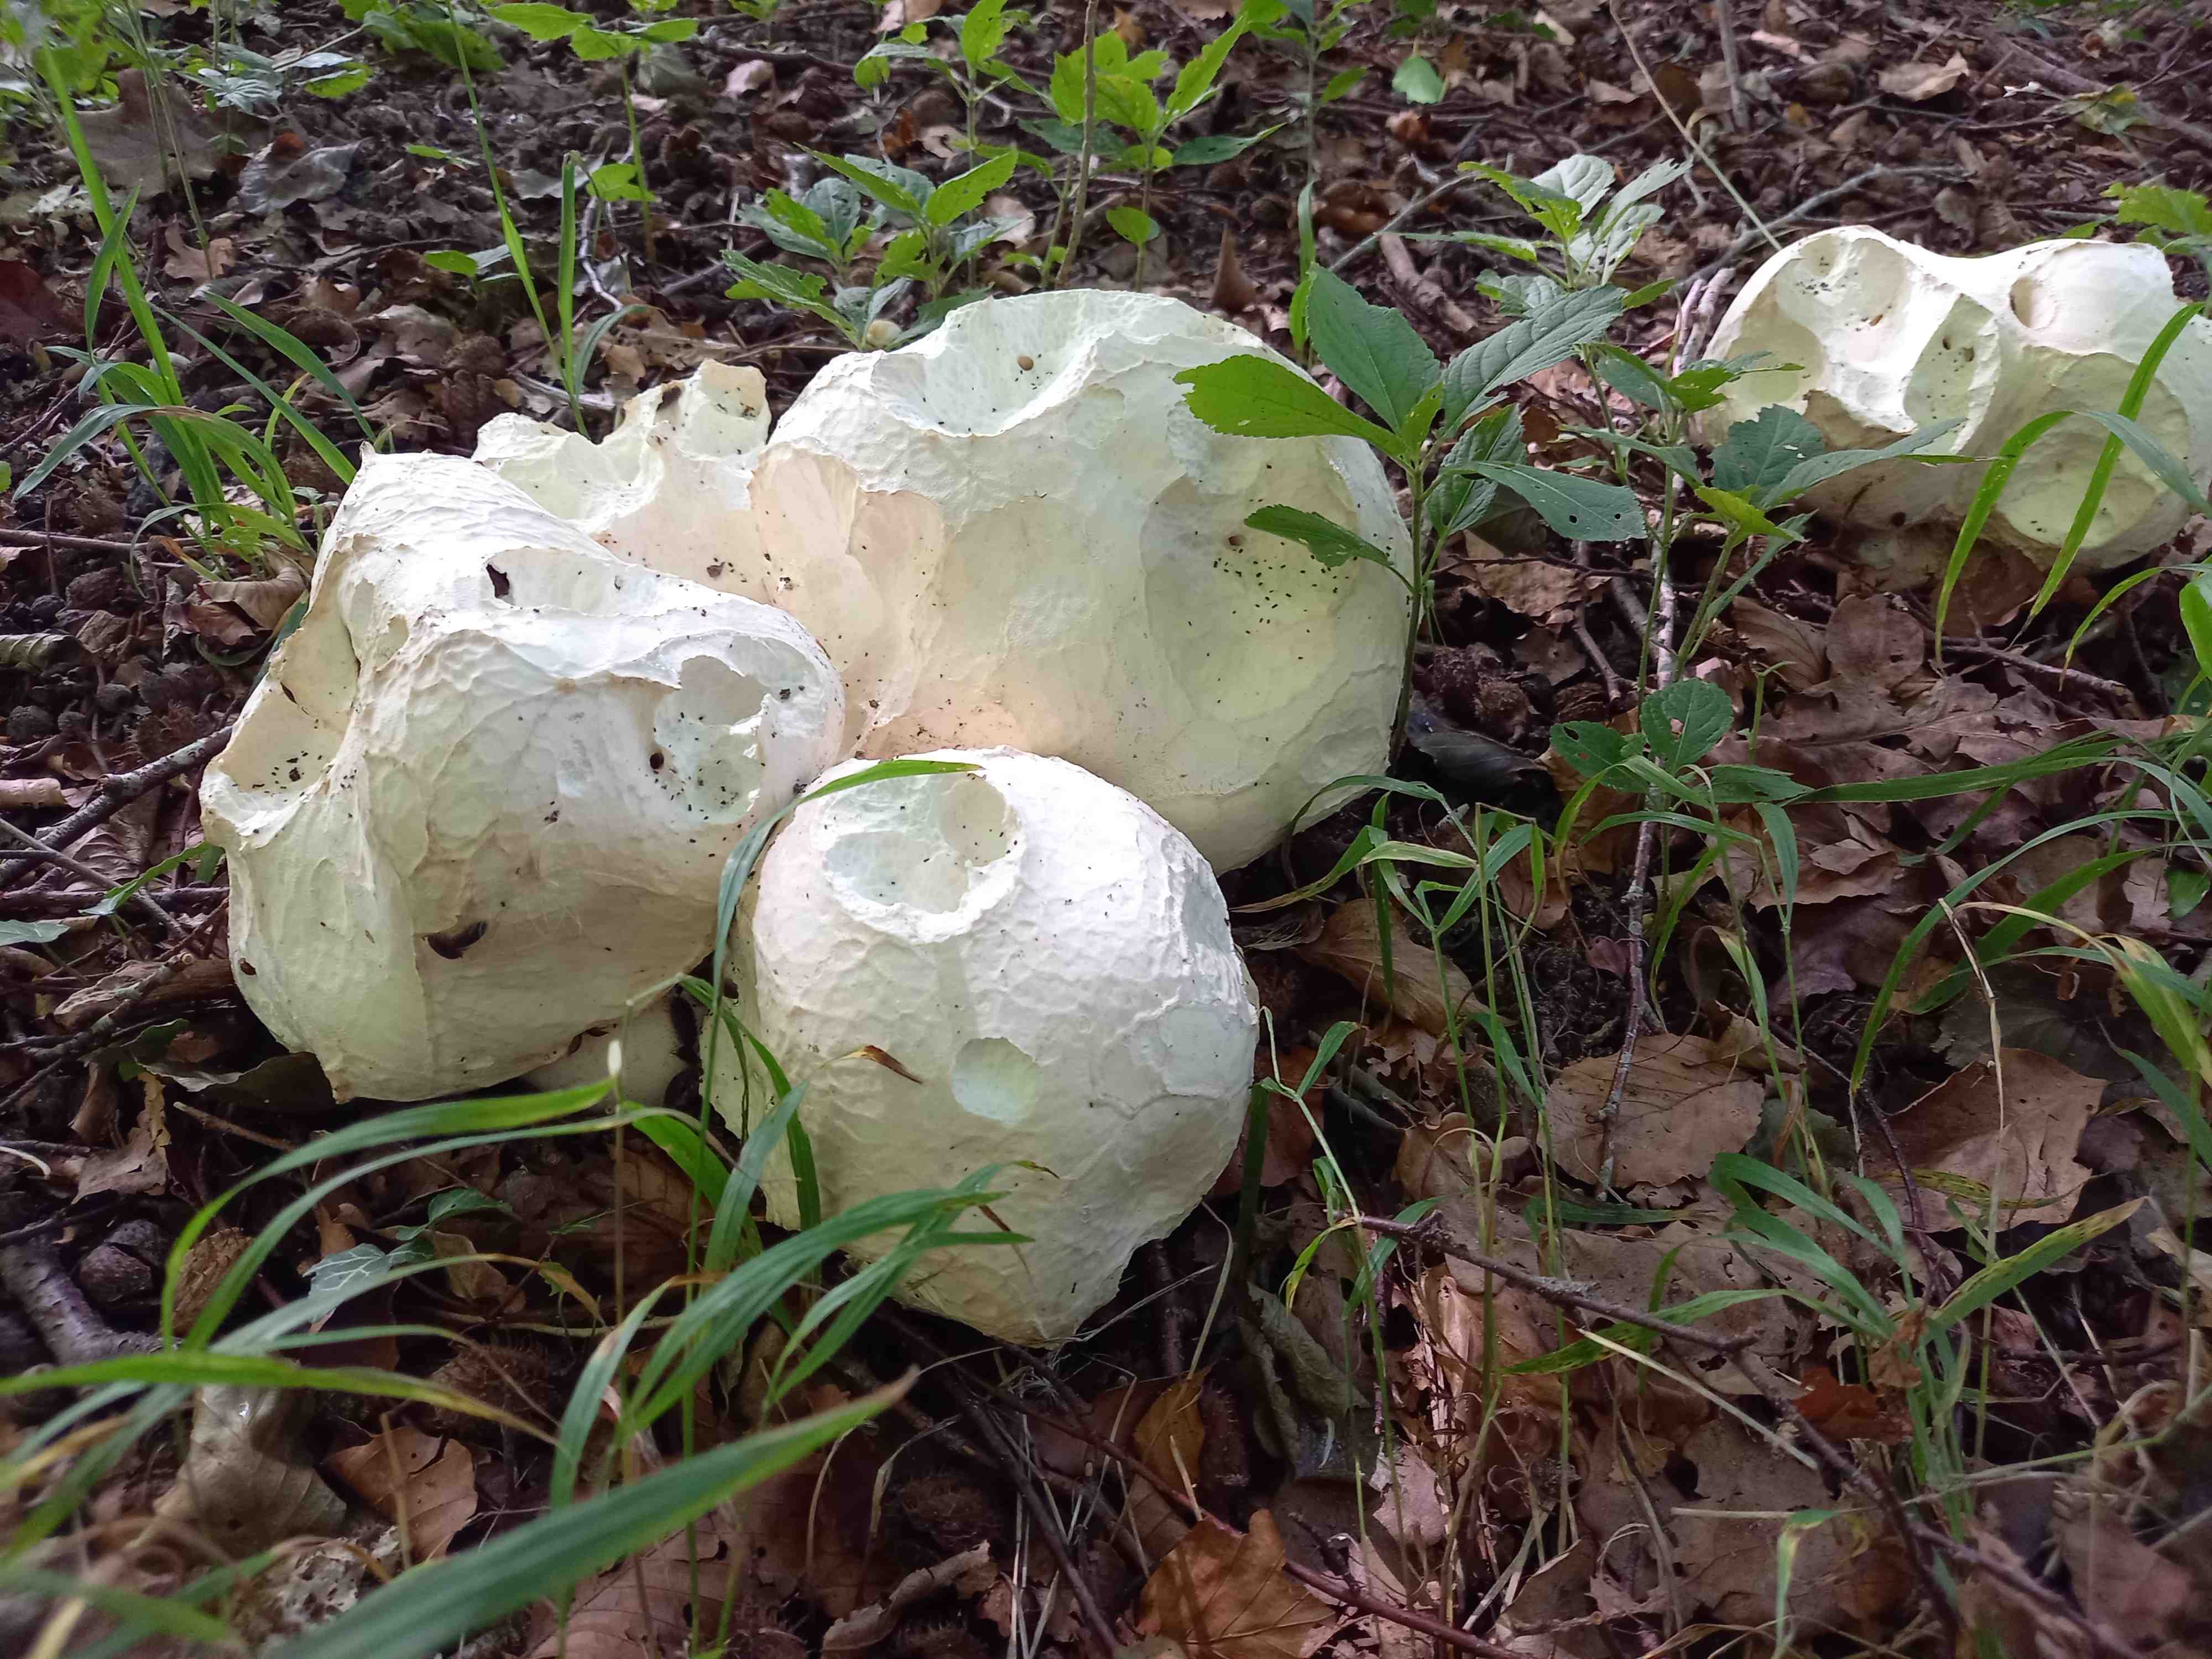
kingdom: Fungi
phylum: Basidiomycota
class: Agaricomycetes
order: Agaricales
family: Lycoperdaceae
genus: Calvatia
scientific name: Calvatia gigantea
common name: kæmpestøvbold
